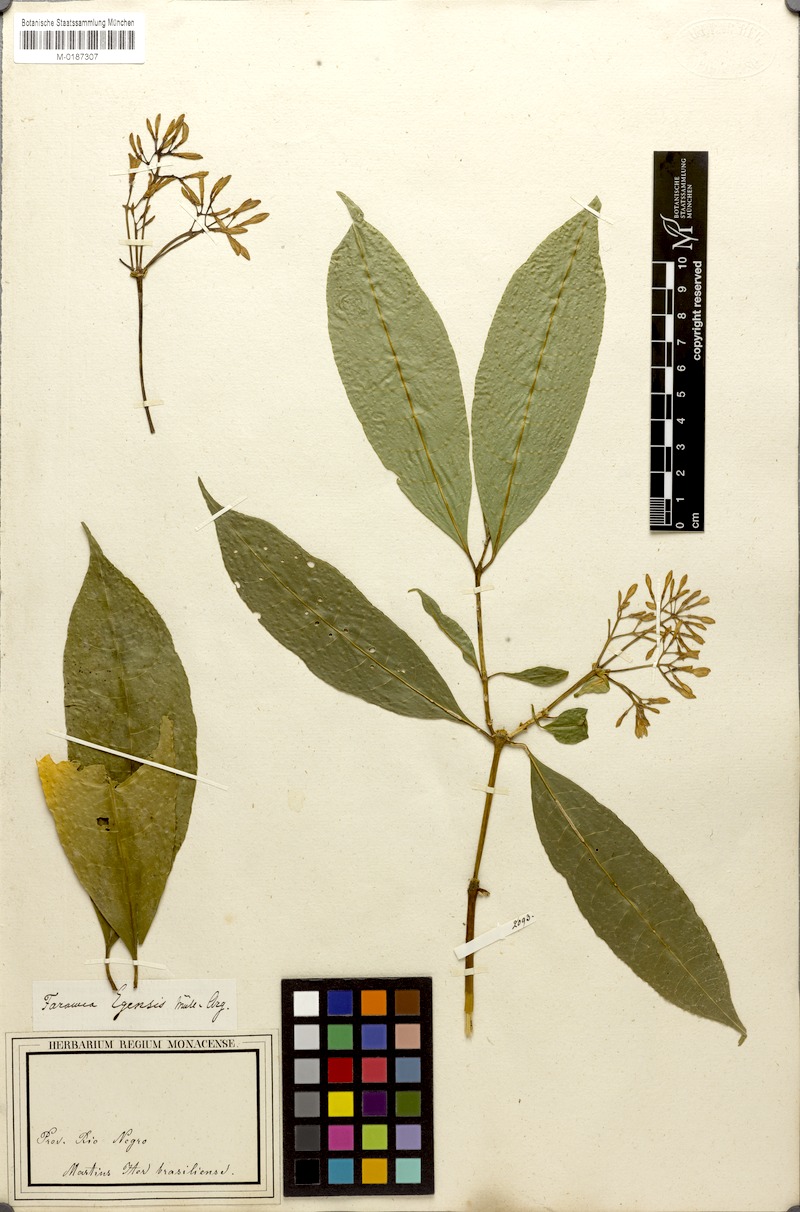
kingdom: Plantae
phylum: Tracheophyta
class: Magnoliopsida
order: Gentianales
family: Rubiaceae
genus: Faramea
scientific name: Faramea multiflora
